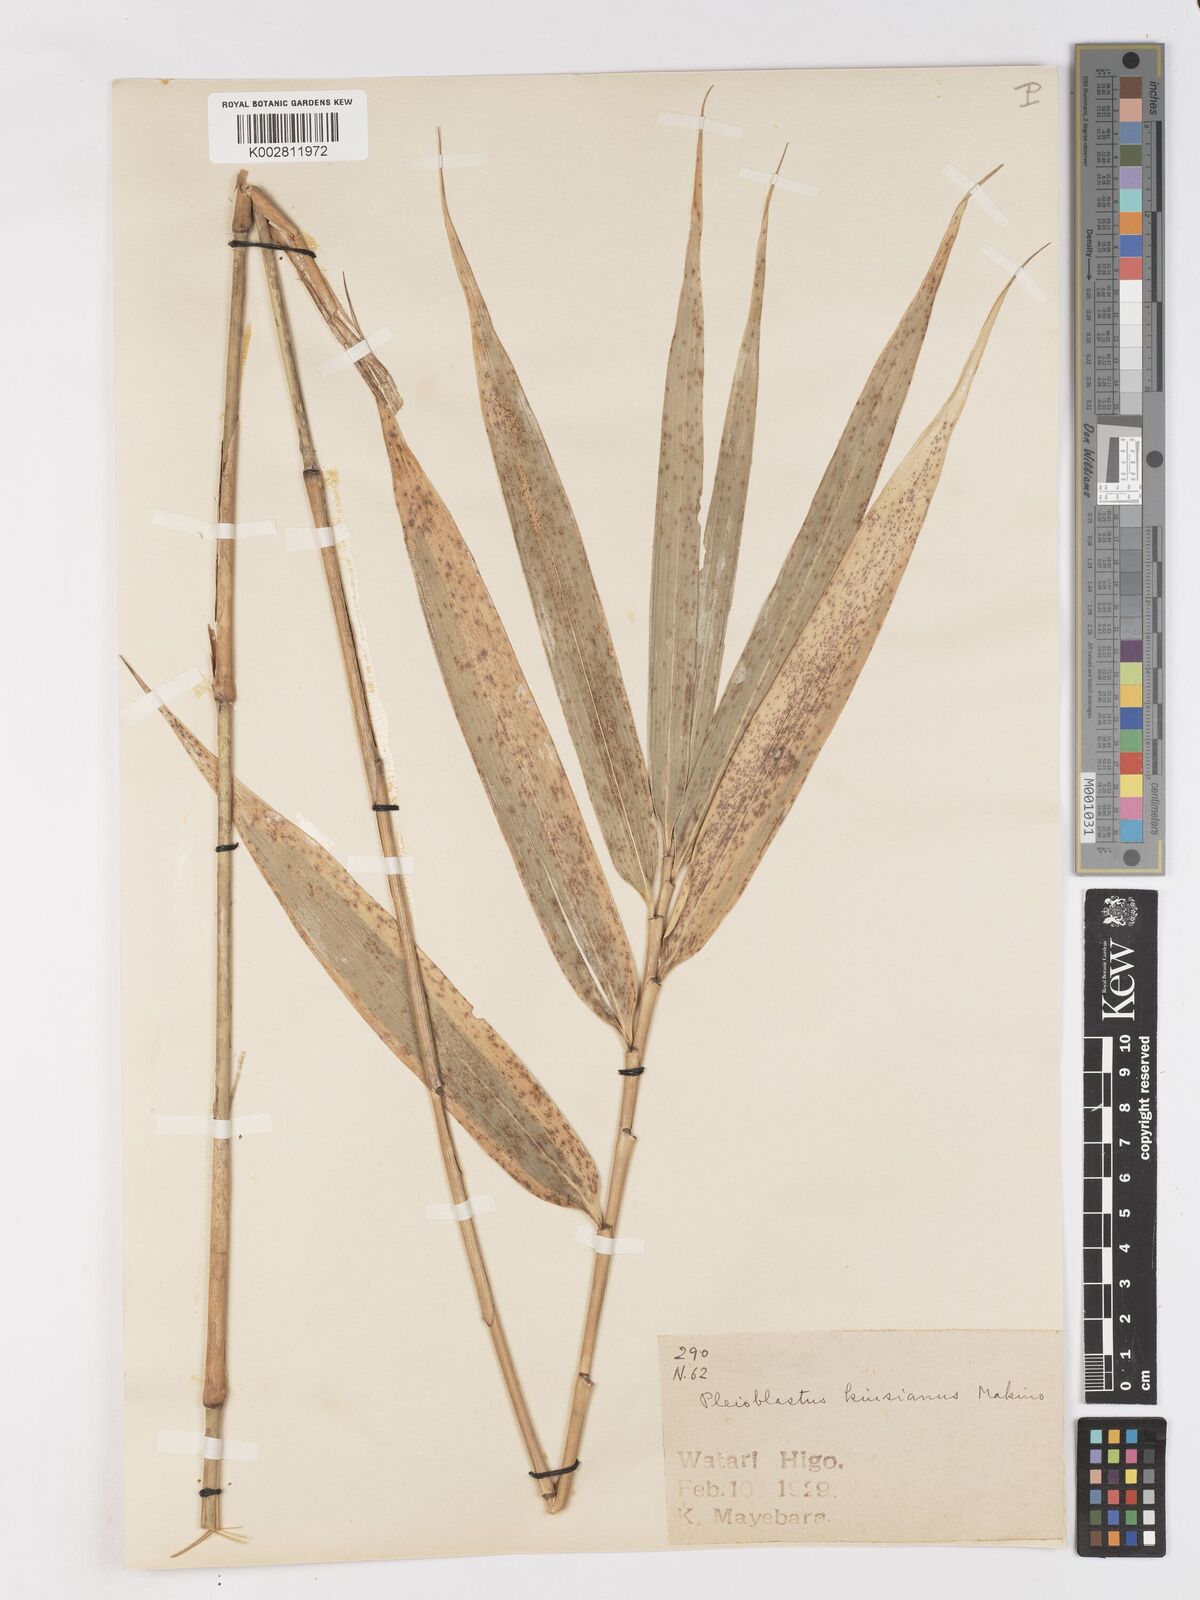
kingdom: Plantae
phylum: Tracheophyta
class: Liliopsida
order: Poales
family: Poaceae
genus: Pleioblastus
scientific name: Pleioblastus kodzumae
